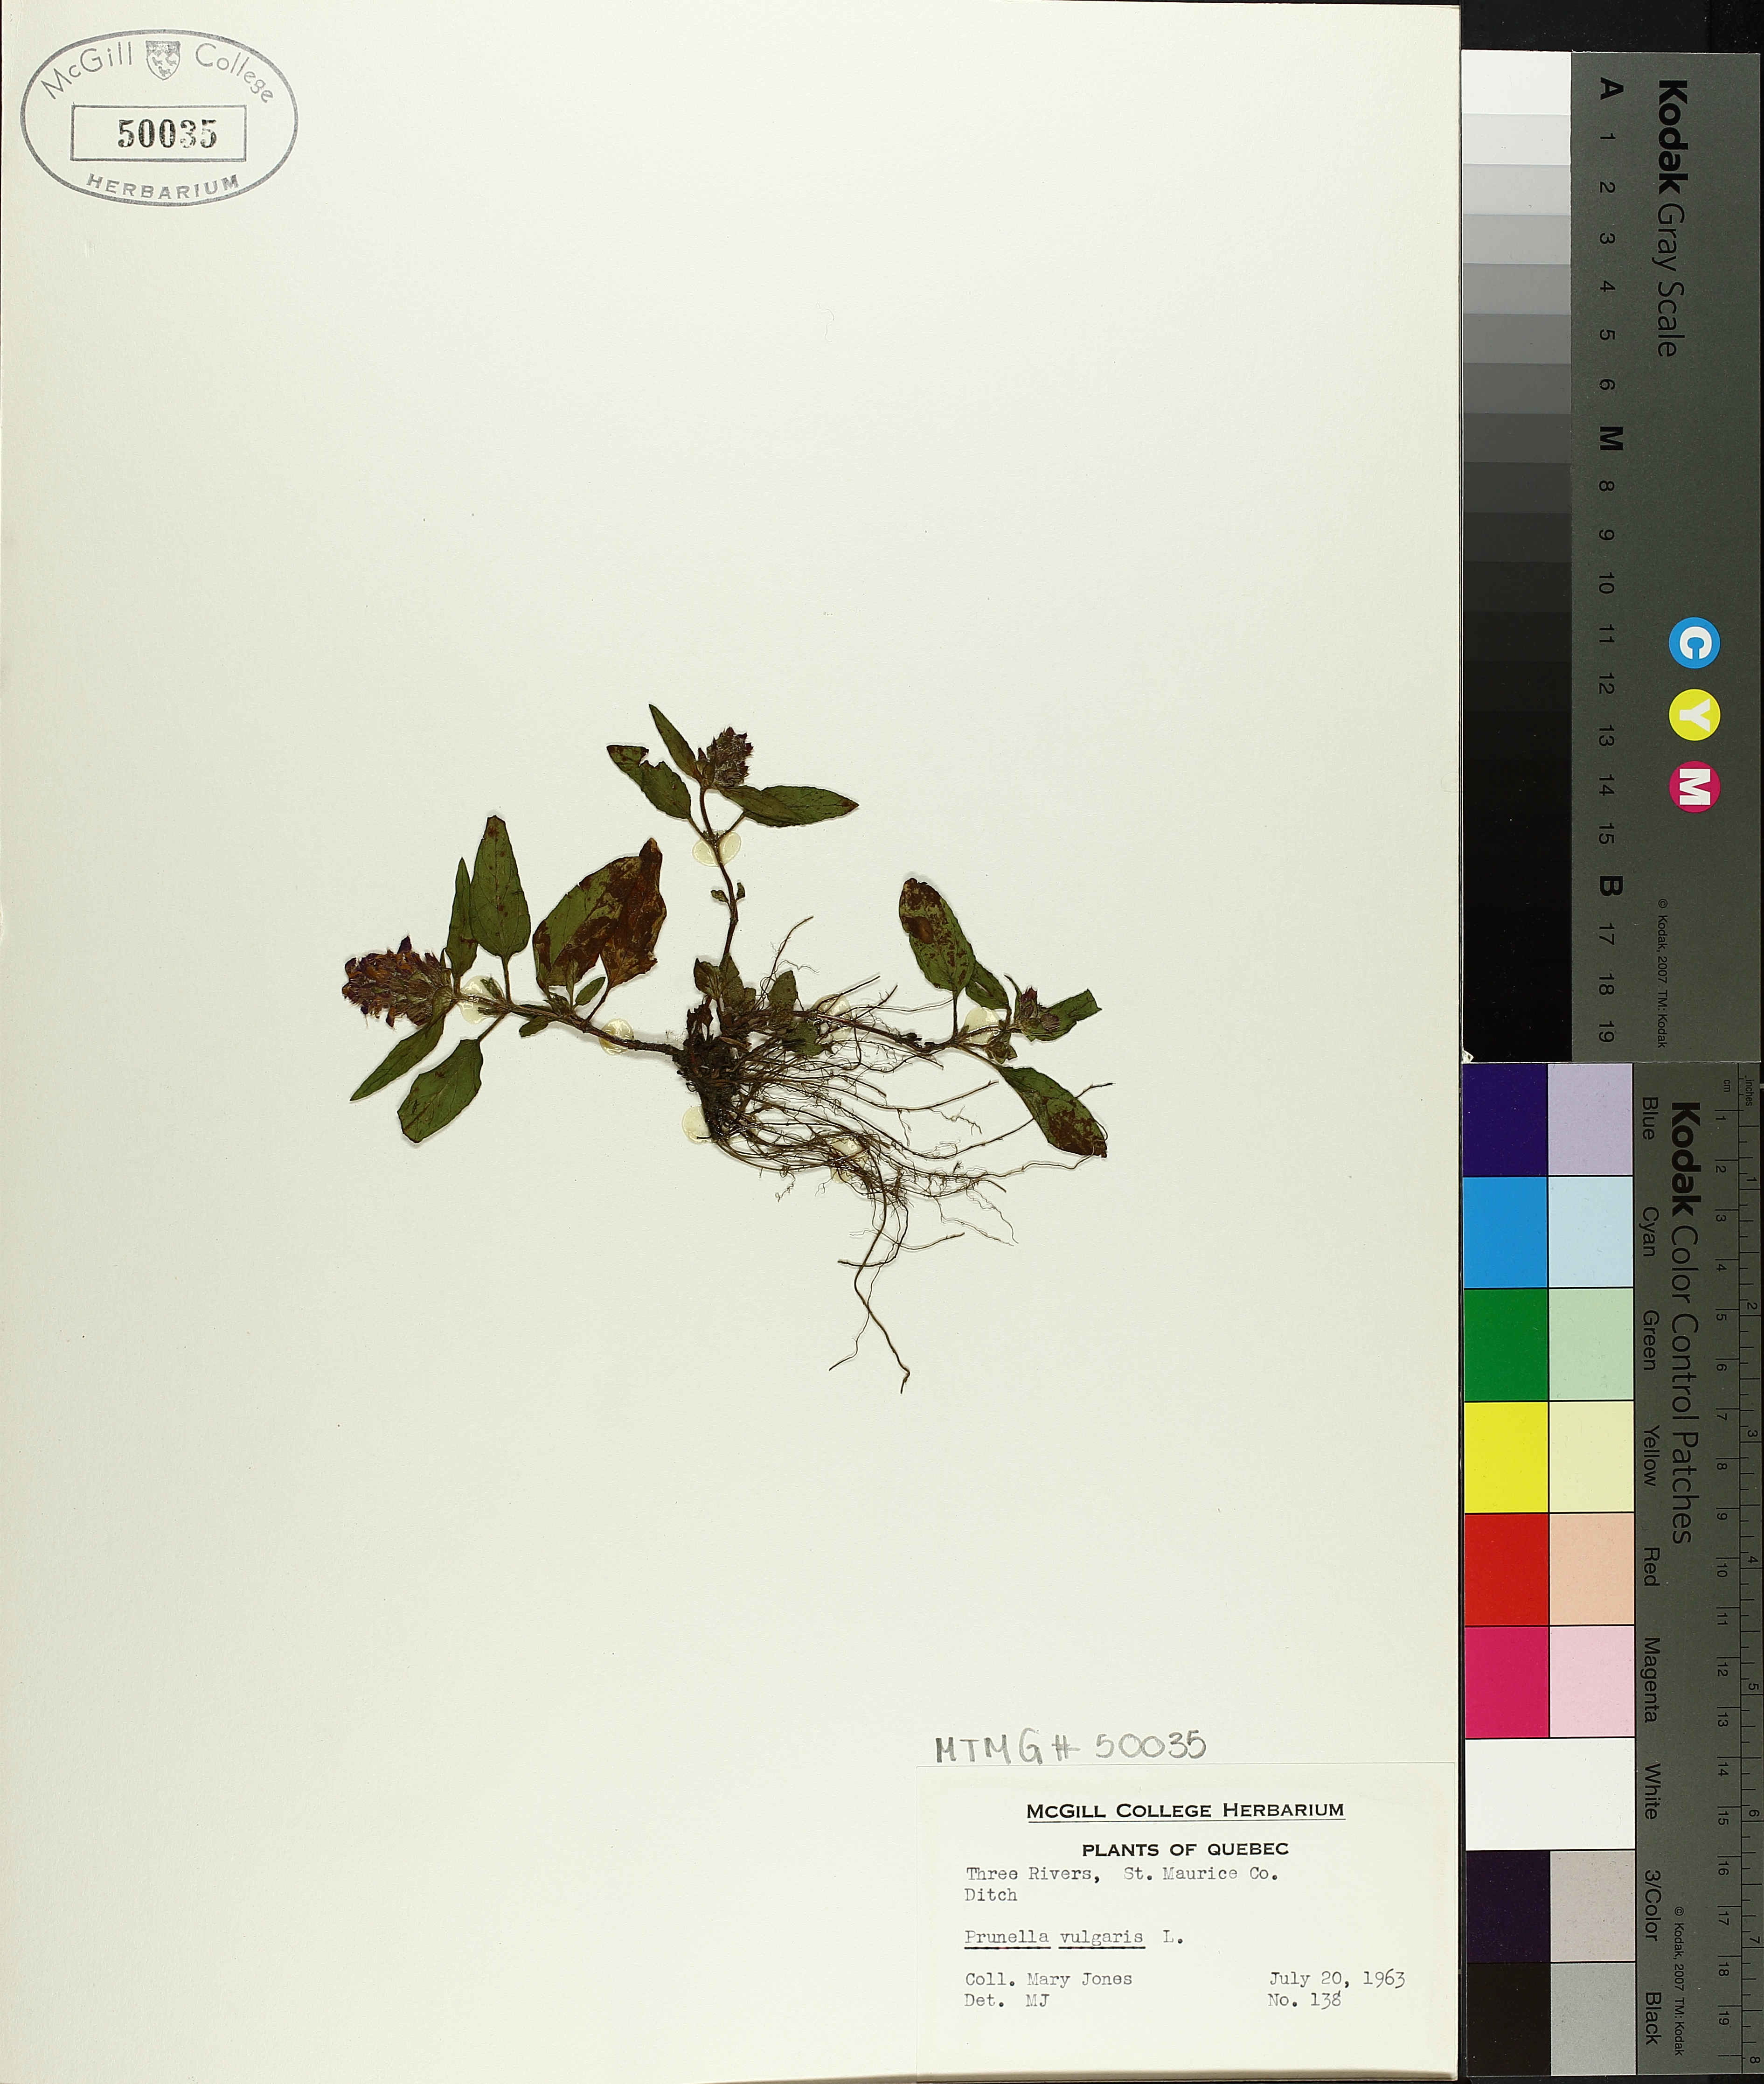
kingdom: Plantae
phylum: Tracheophyta
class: Magnoliopsida
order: Lamiales
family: Lamiaceae
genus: Prunella
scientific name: Prunella vulgaris
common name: Heal-all
